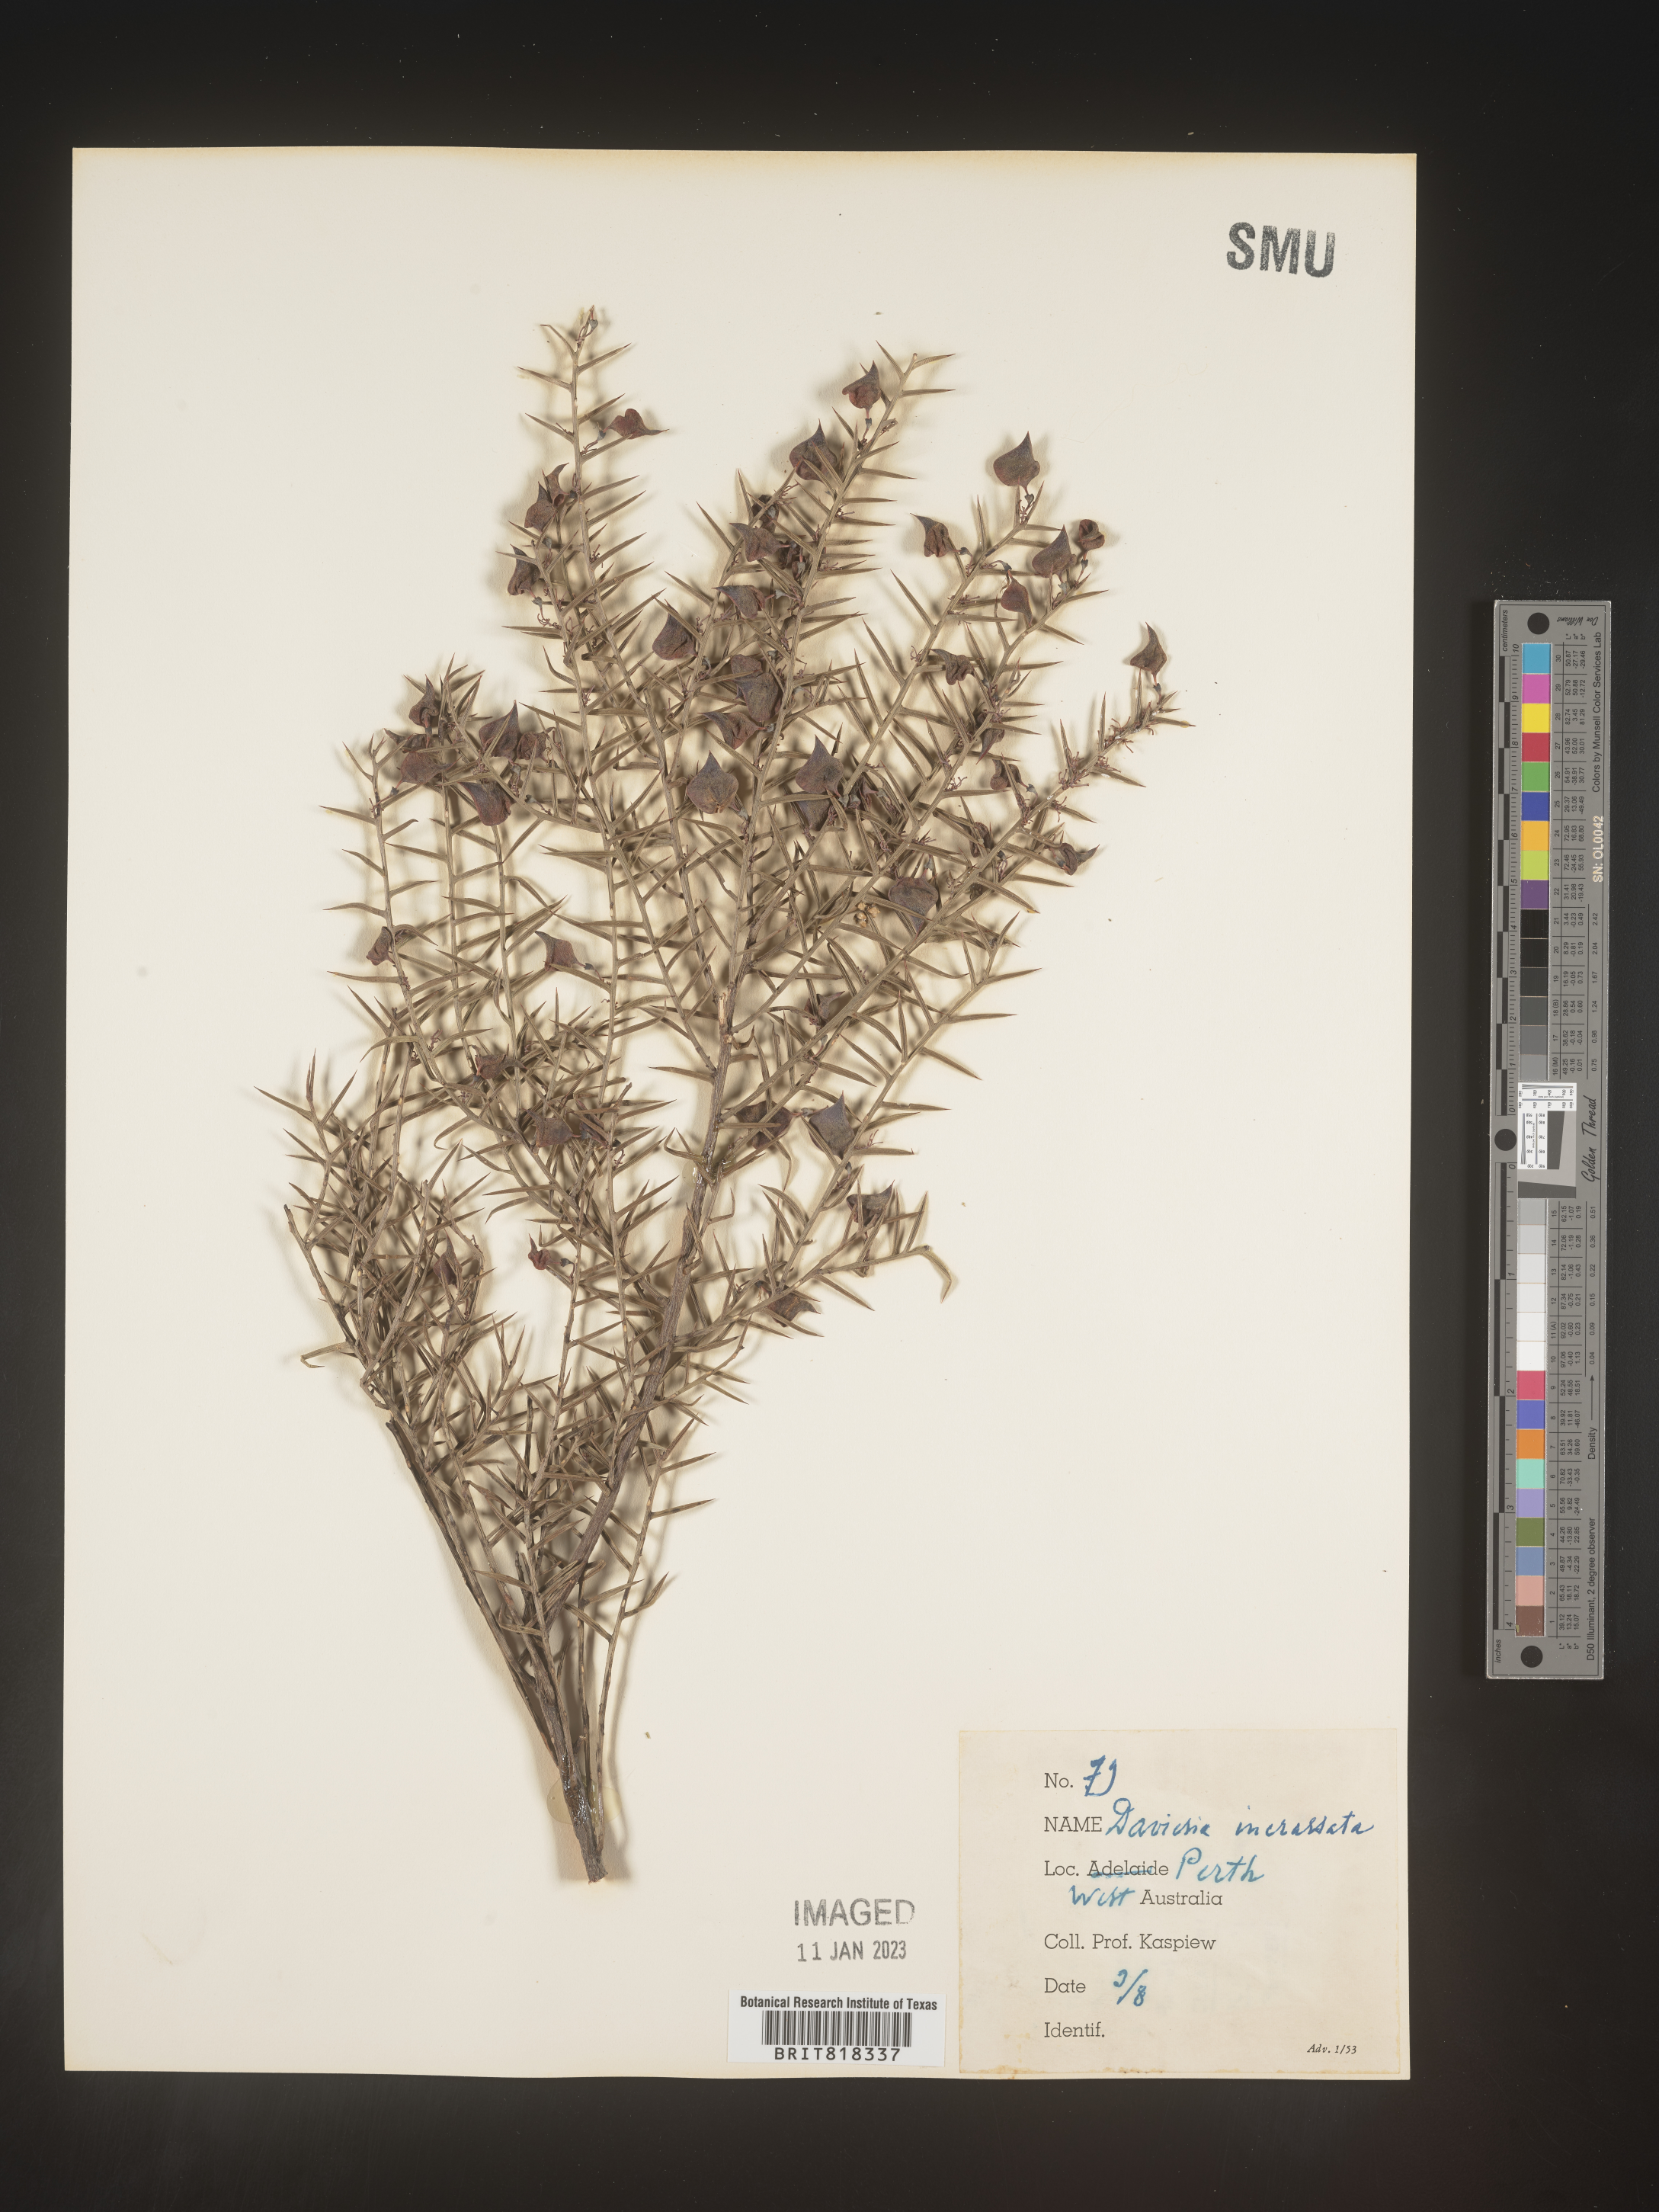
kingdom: Plantae
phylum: Tracheophyta
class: Magnoliopsida
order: Fabales
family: Fabaceae
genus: Daviesia
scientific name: Daviesia
